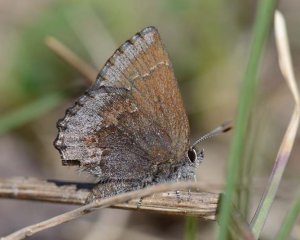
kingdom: Animalia
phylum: Arthropoda
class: Insecta
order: Lepidoptera
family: Lycaenidae
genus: Callophrys
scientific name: Callophrys polios
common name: Hoary Elfin
